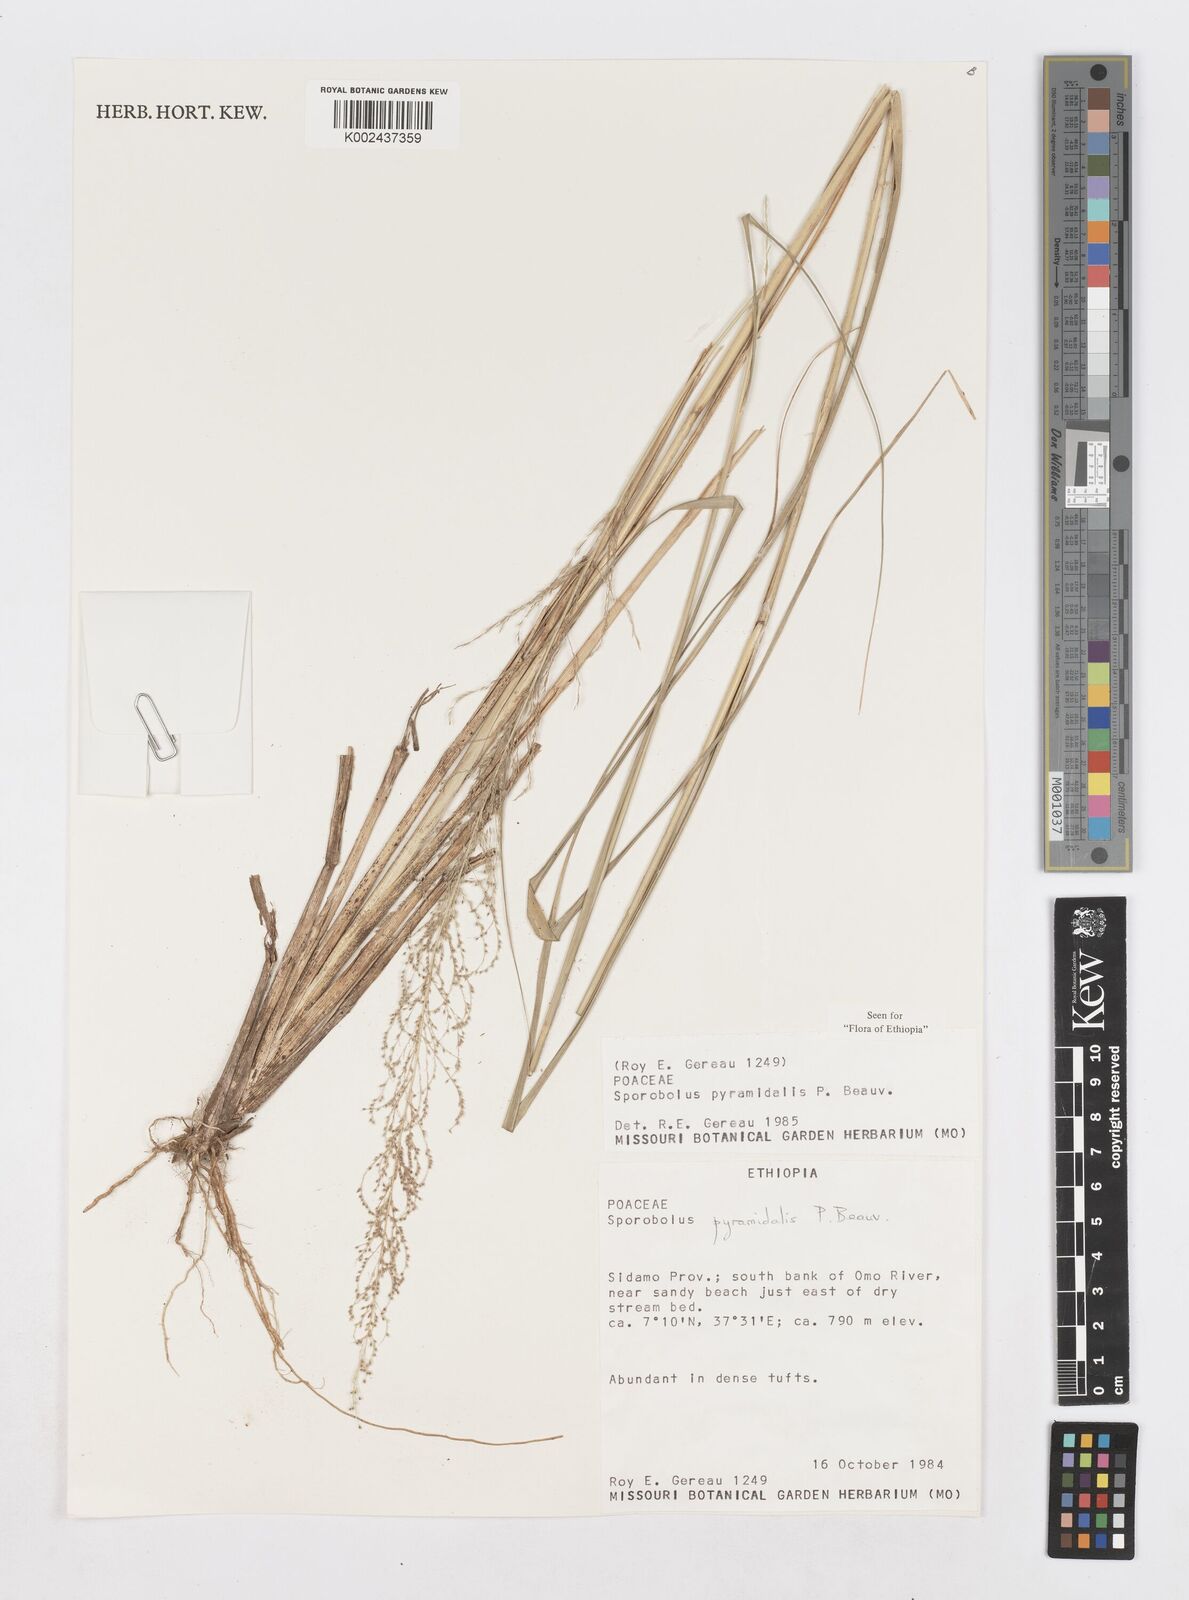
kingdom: Plantae
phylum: Tracheophyta
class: Liliopsida
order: Poales
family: Poaceae
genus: Sporobolus
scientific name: Sporobolus pyramidalis
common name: West indian dropseed
